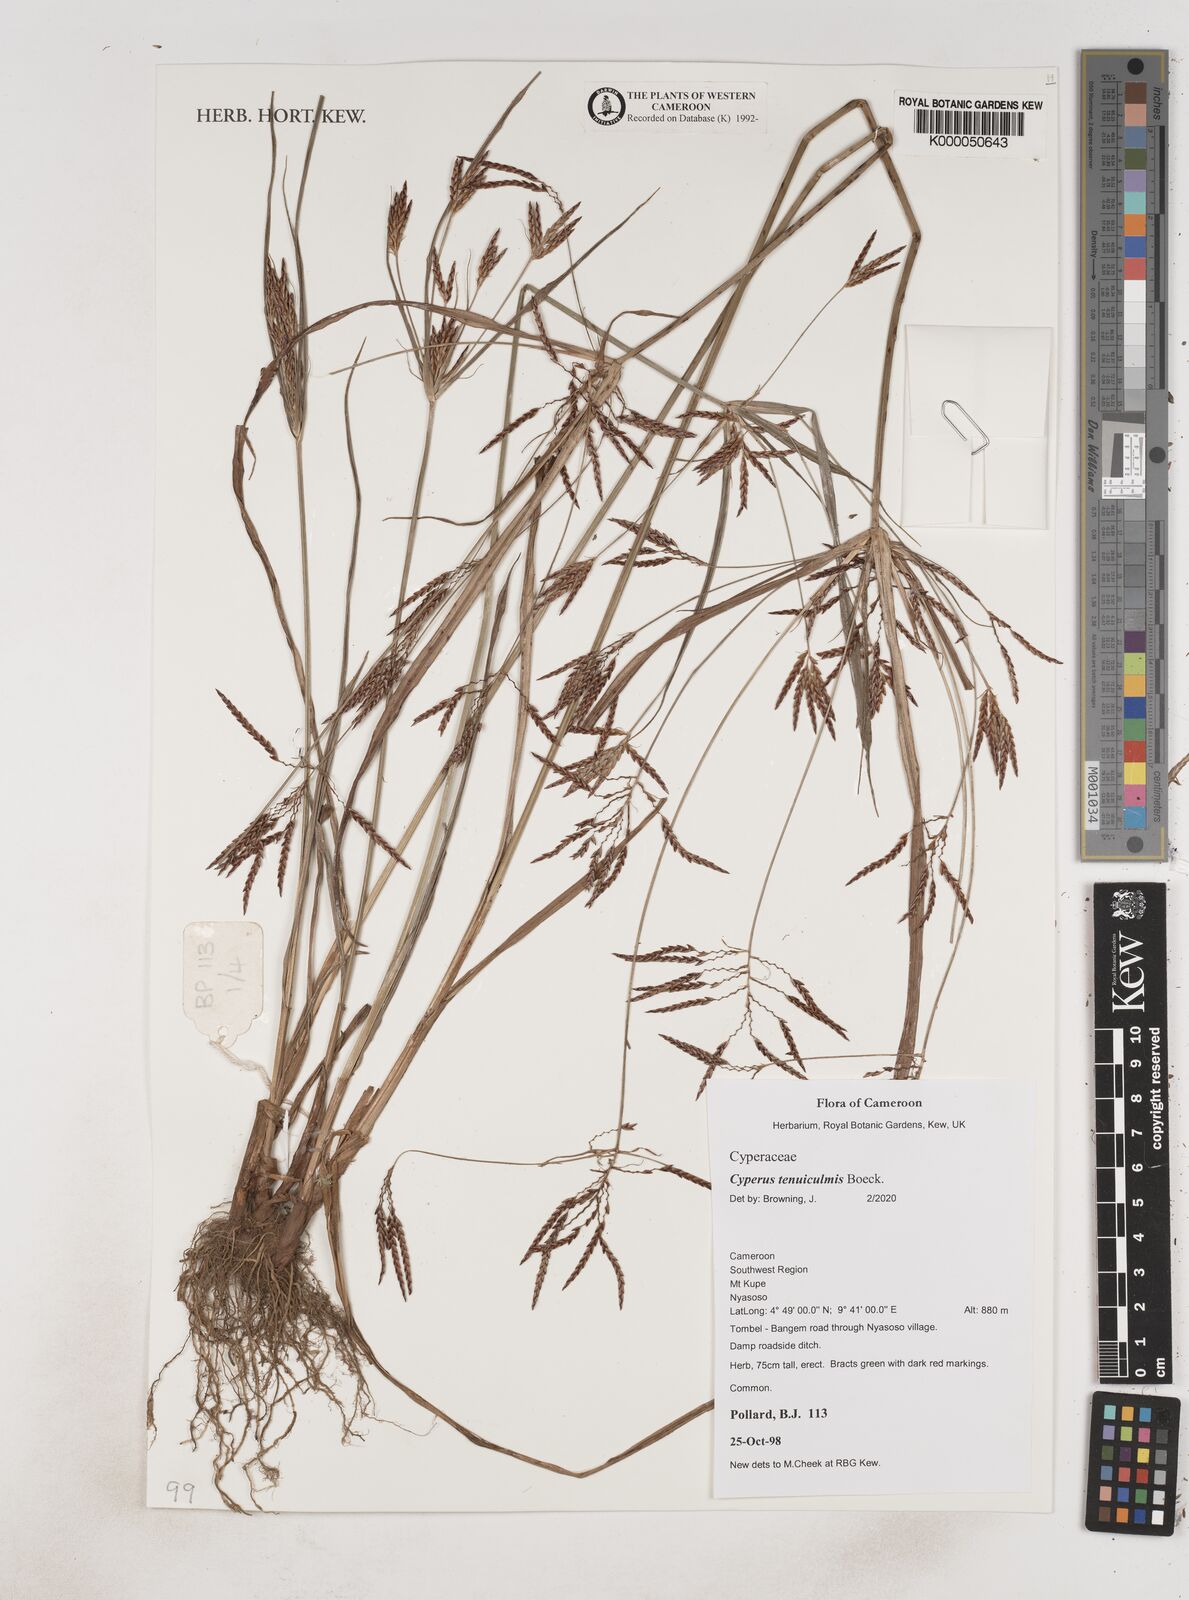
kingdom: Plantae
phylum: Tracheophyta
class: Liliopsida
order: Poales
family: Cyperaceae
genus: Cyperus
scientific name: Cyperus tenuiculmis
